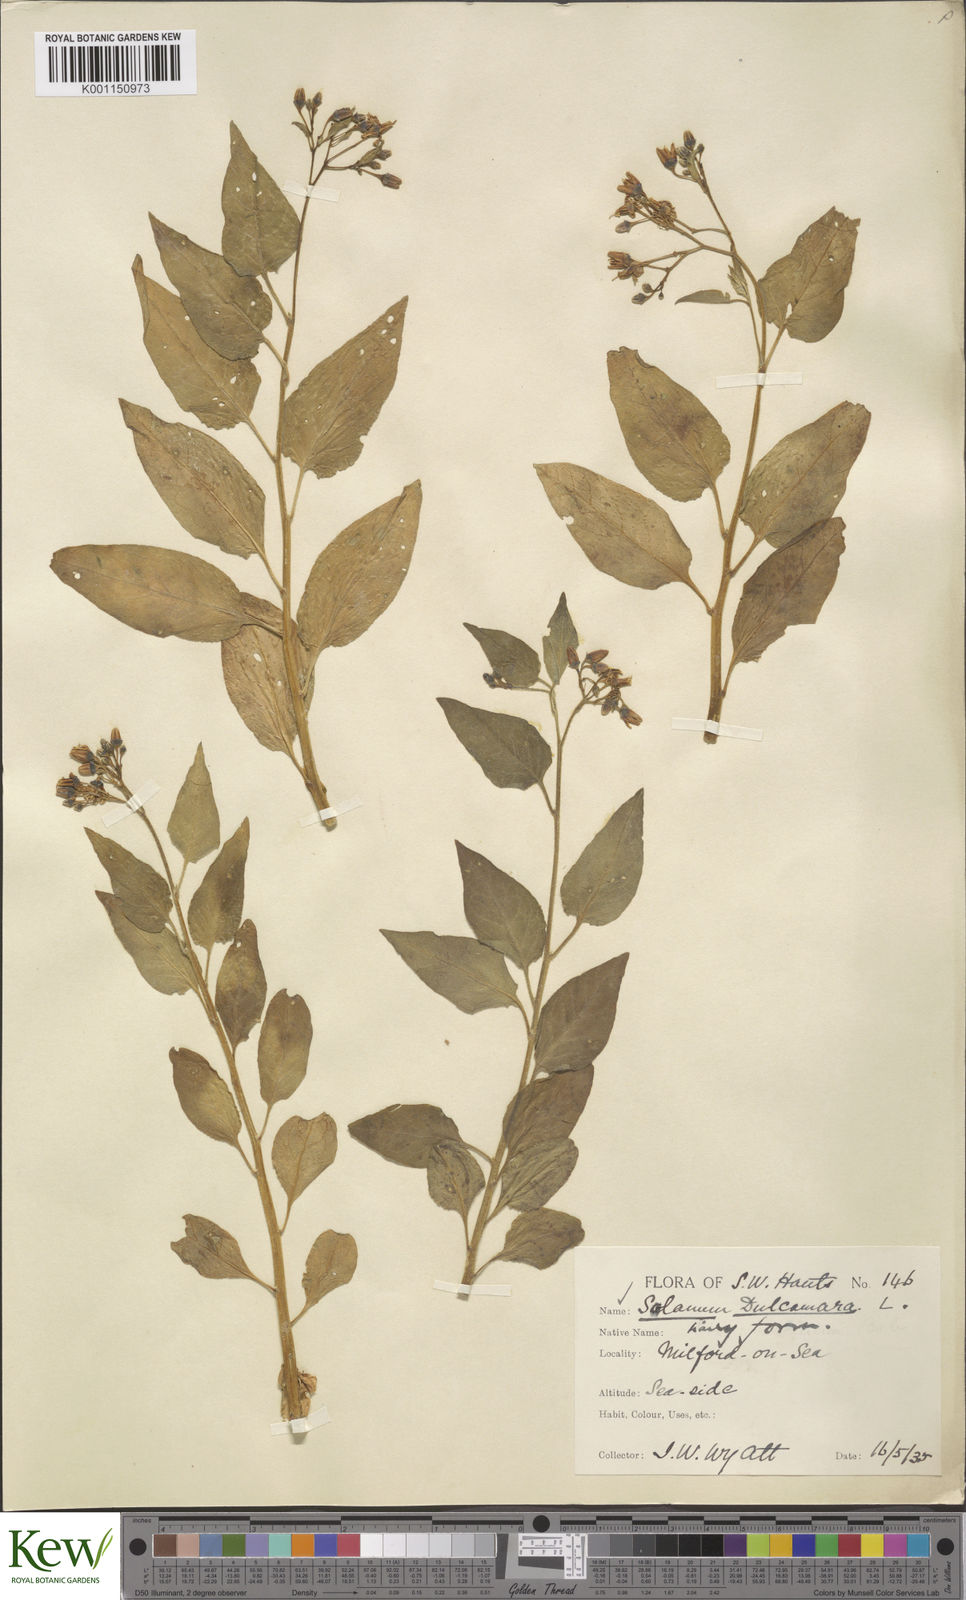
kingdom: Plantae
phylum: Tracheophyta
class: Magnoliopsida
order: Solanales
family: Solanaceae
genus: Solanum
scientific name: Solanum dulcamara
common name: Climbing nightshade
